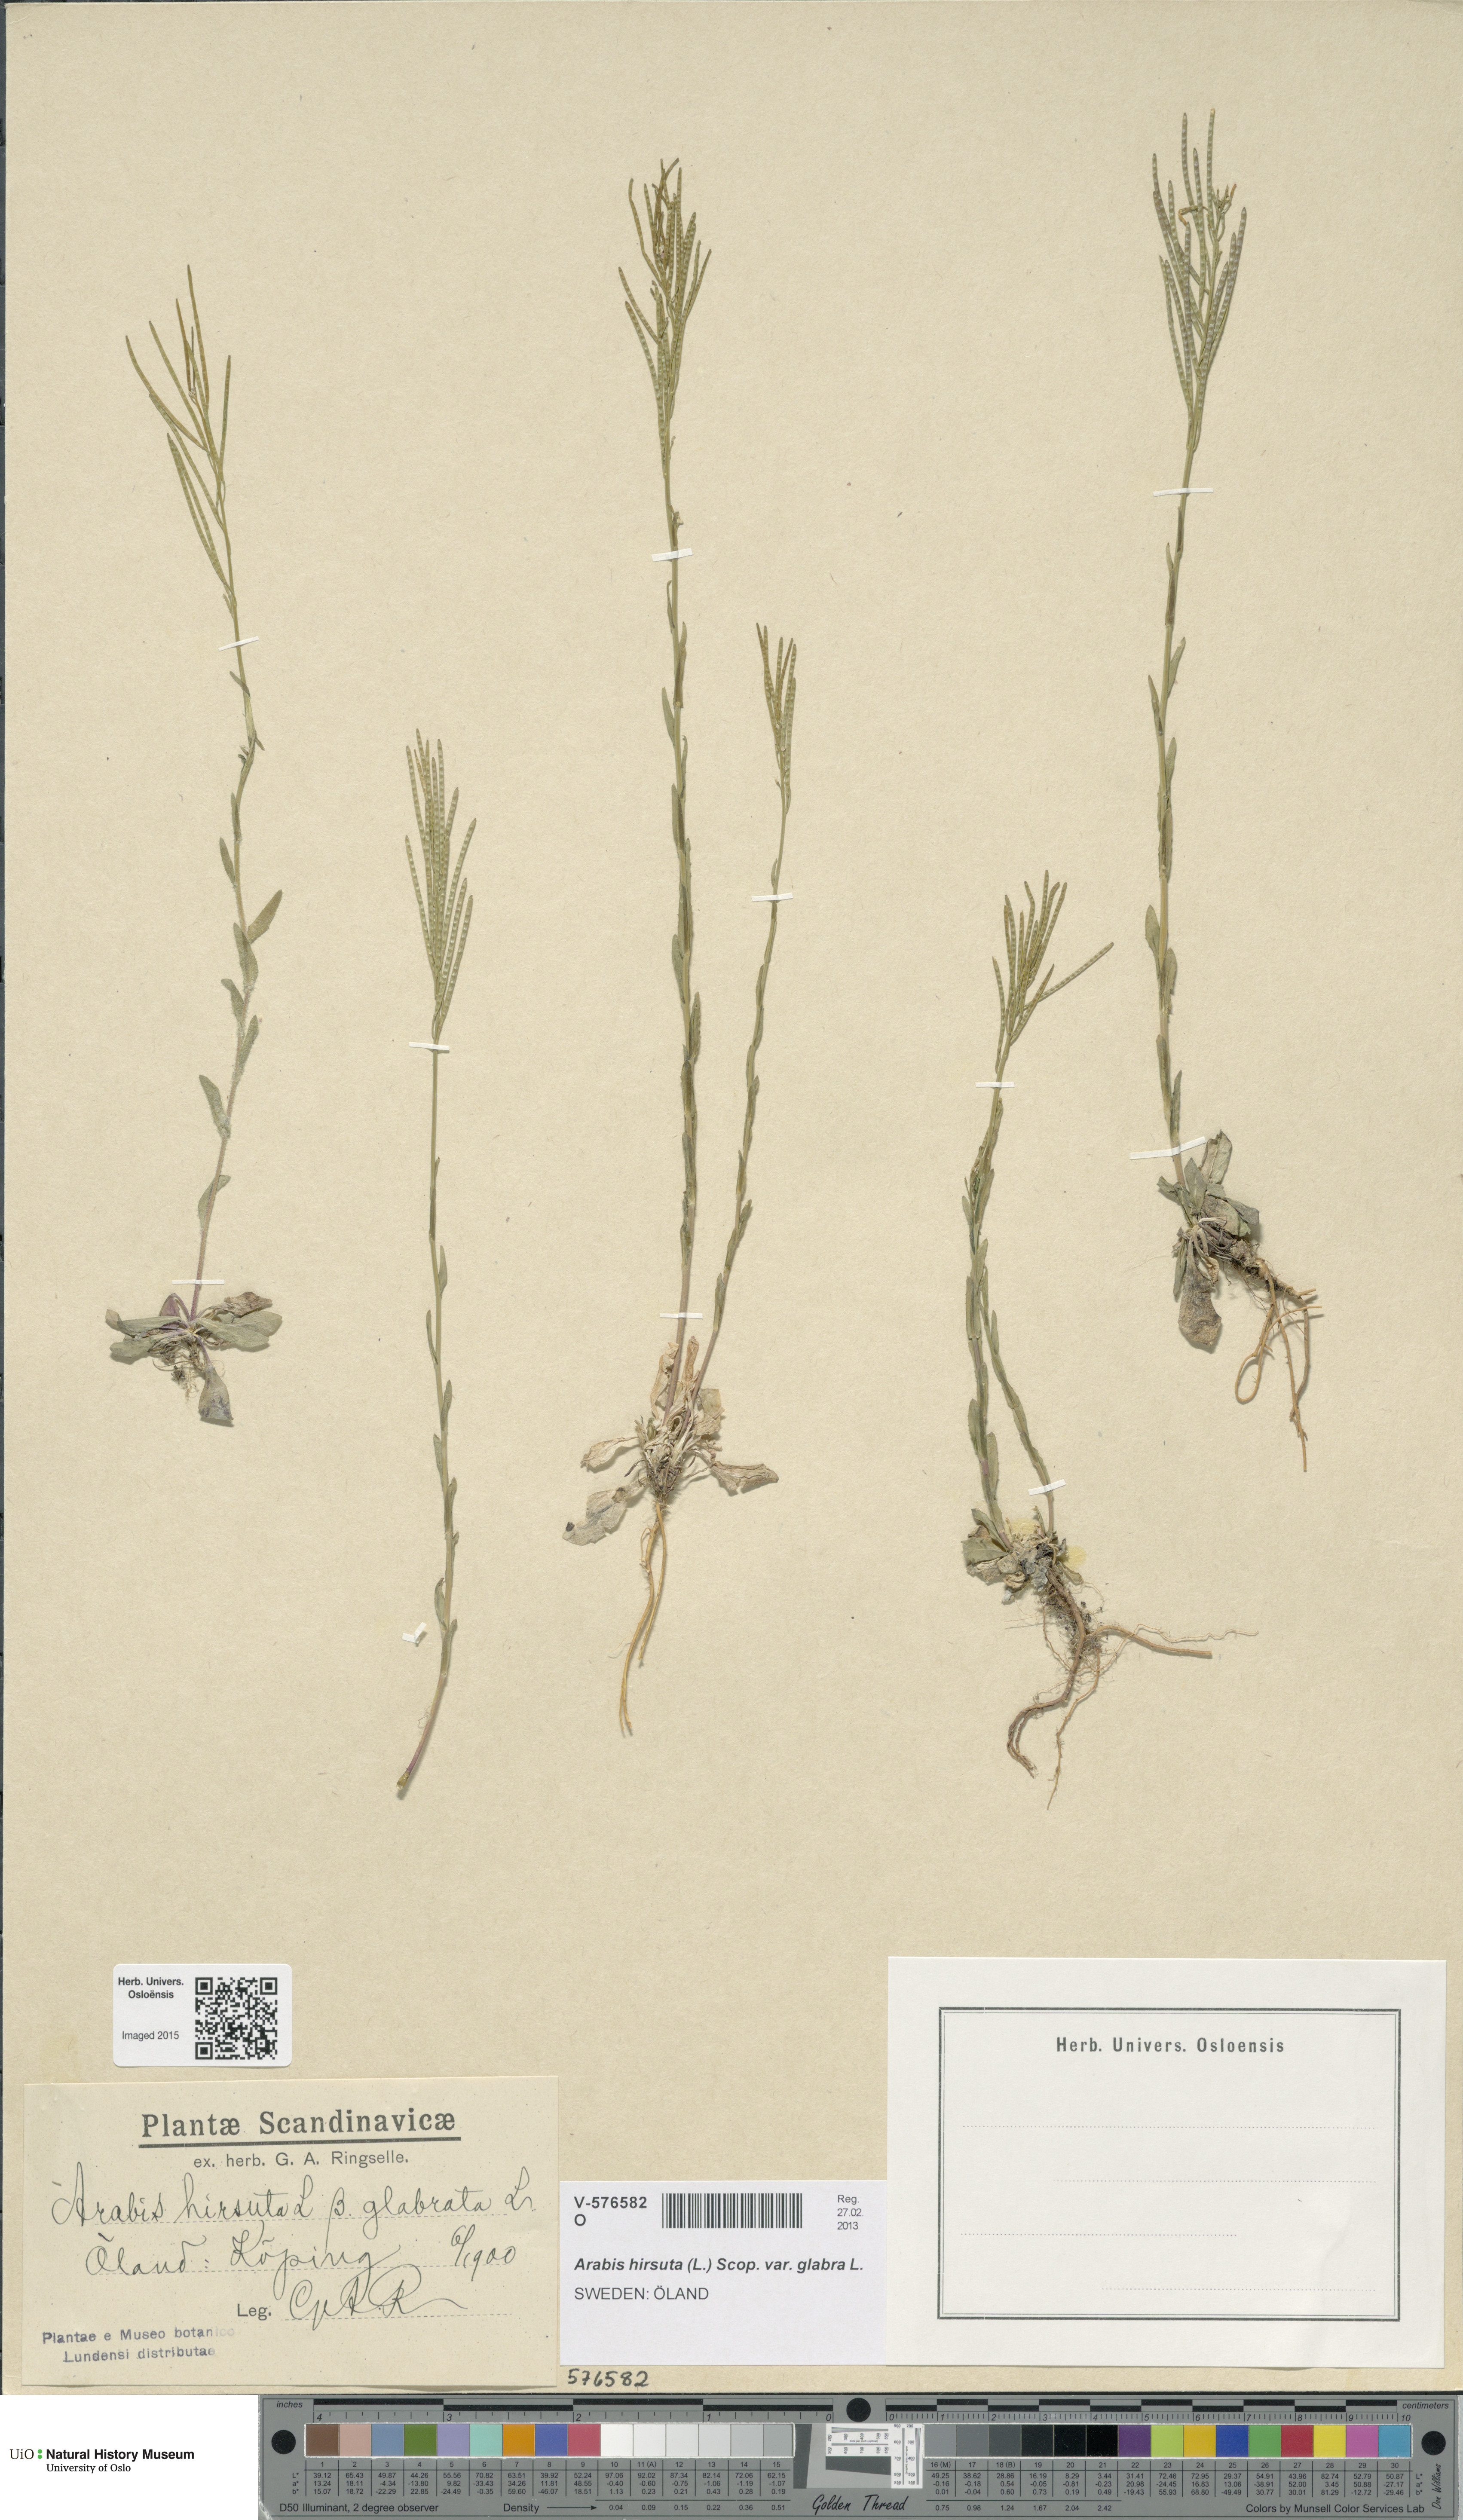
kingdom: Plantae
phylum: Tracheophyta
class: Magnoliopsida
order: Brassicales
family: Brassicaceae
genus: Arabis
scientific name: Arabis hirsuta
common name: Hairy rock-cress
